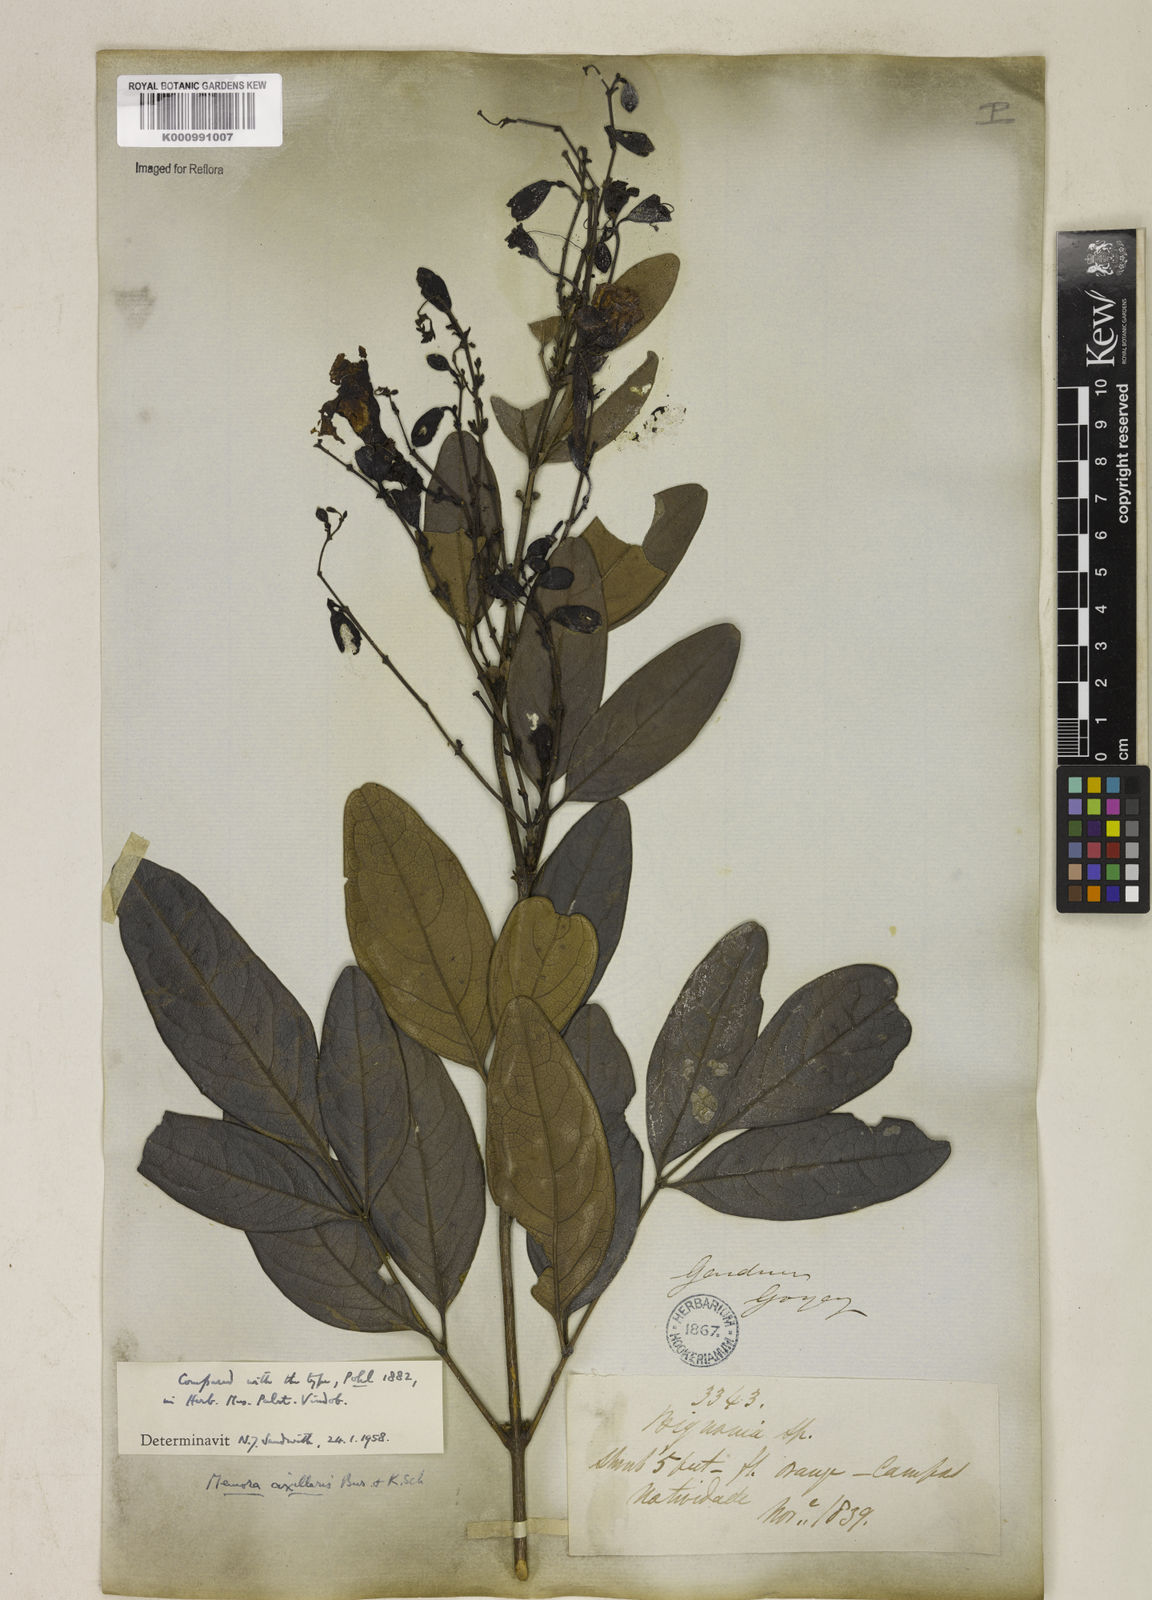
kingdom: Plantae
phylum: Tracheophyta
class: Magnoliopsida
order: Lamiales
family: Bignoniaceae
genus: Adenocalymma
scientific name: Adenocalymma axillare
